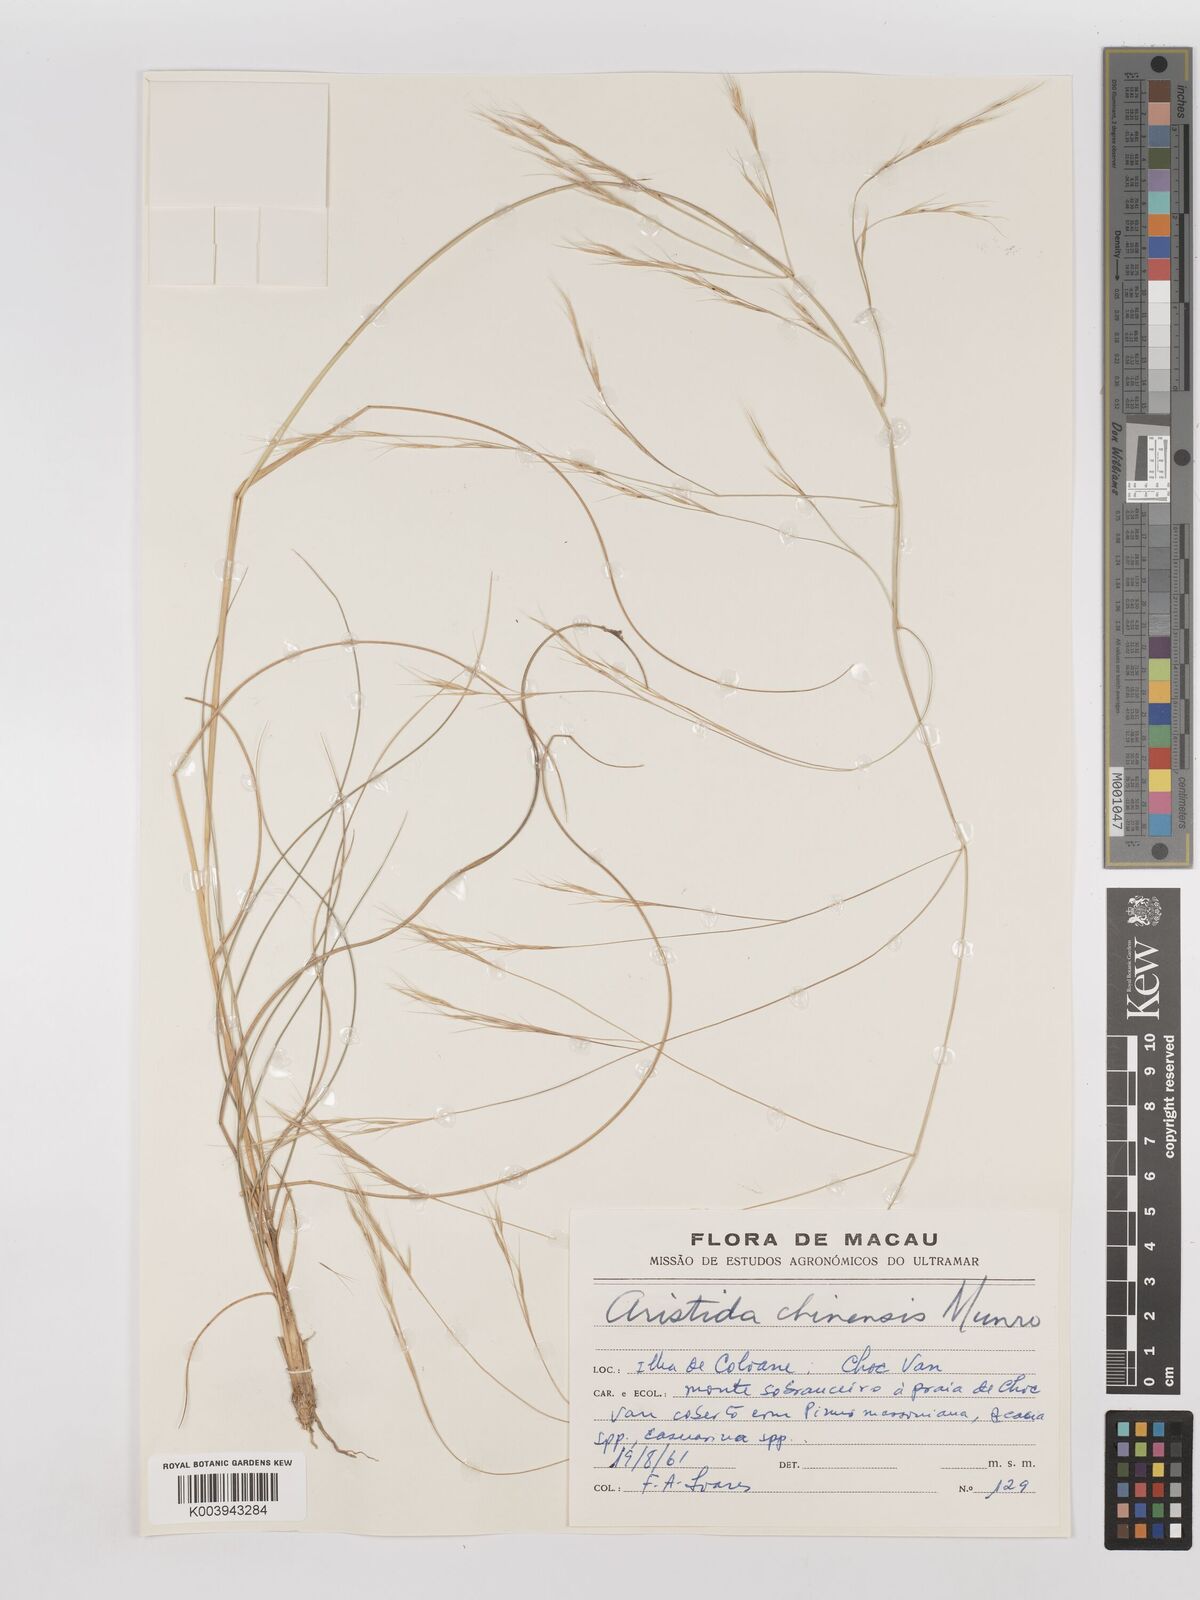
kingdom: Plantae
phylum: Tracheophyta
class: Liliopsida
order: Poales
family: Poaceae
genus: Aristida
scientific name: Aristida chinensis
